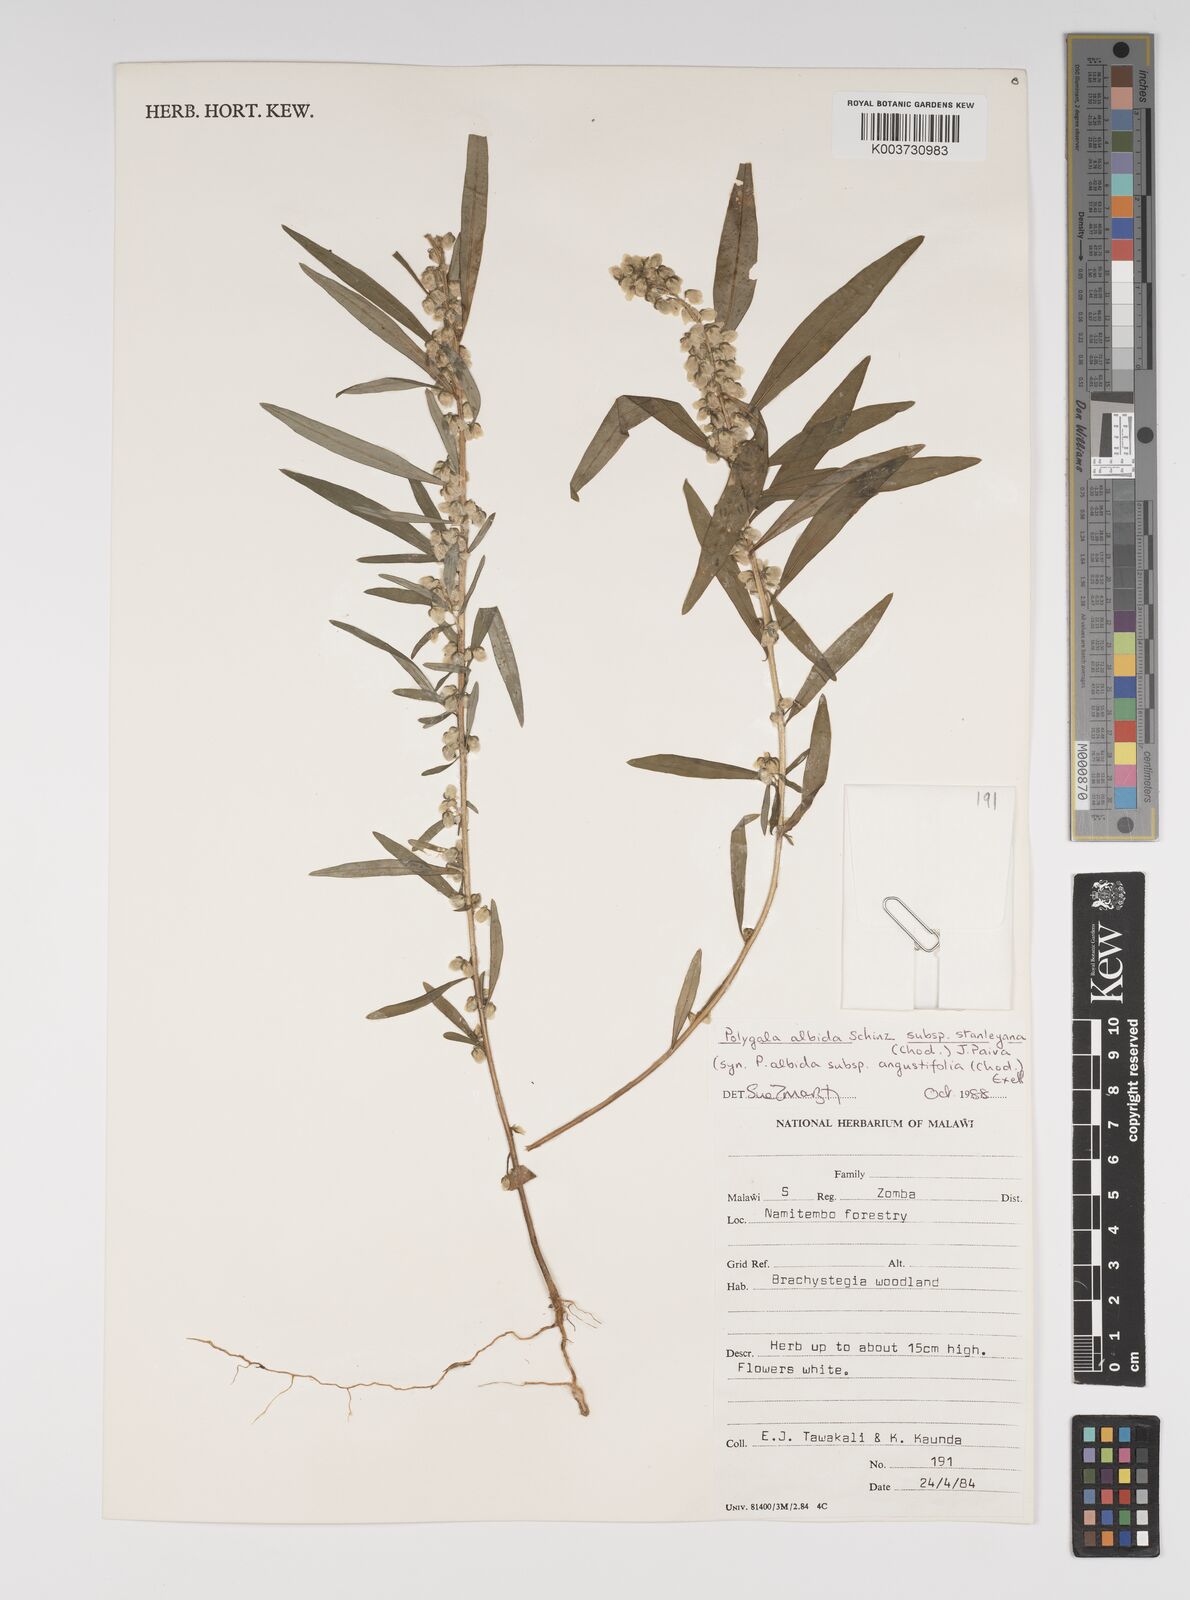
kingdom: Plantae
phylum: Tracheophyta
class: Magnoliopsida
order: Fabales
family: Polygalaceae
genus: Polygala
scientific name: Polygala albida
